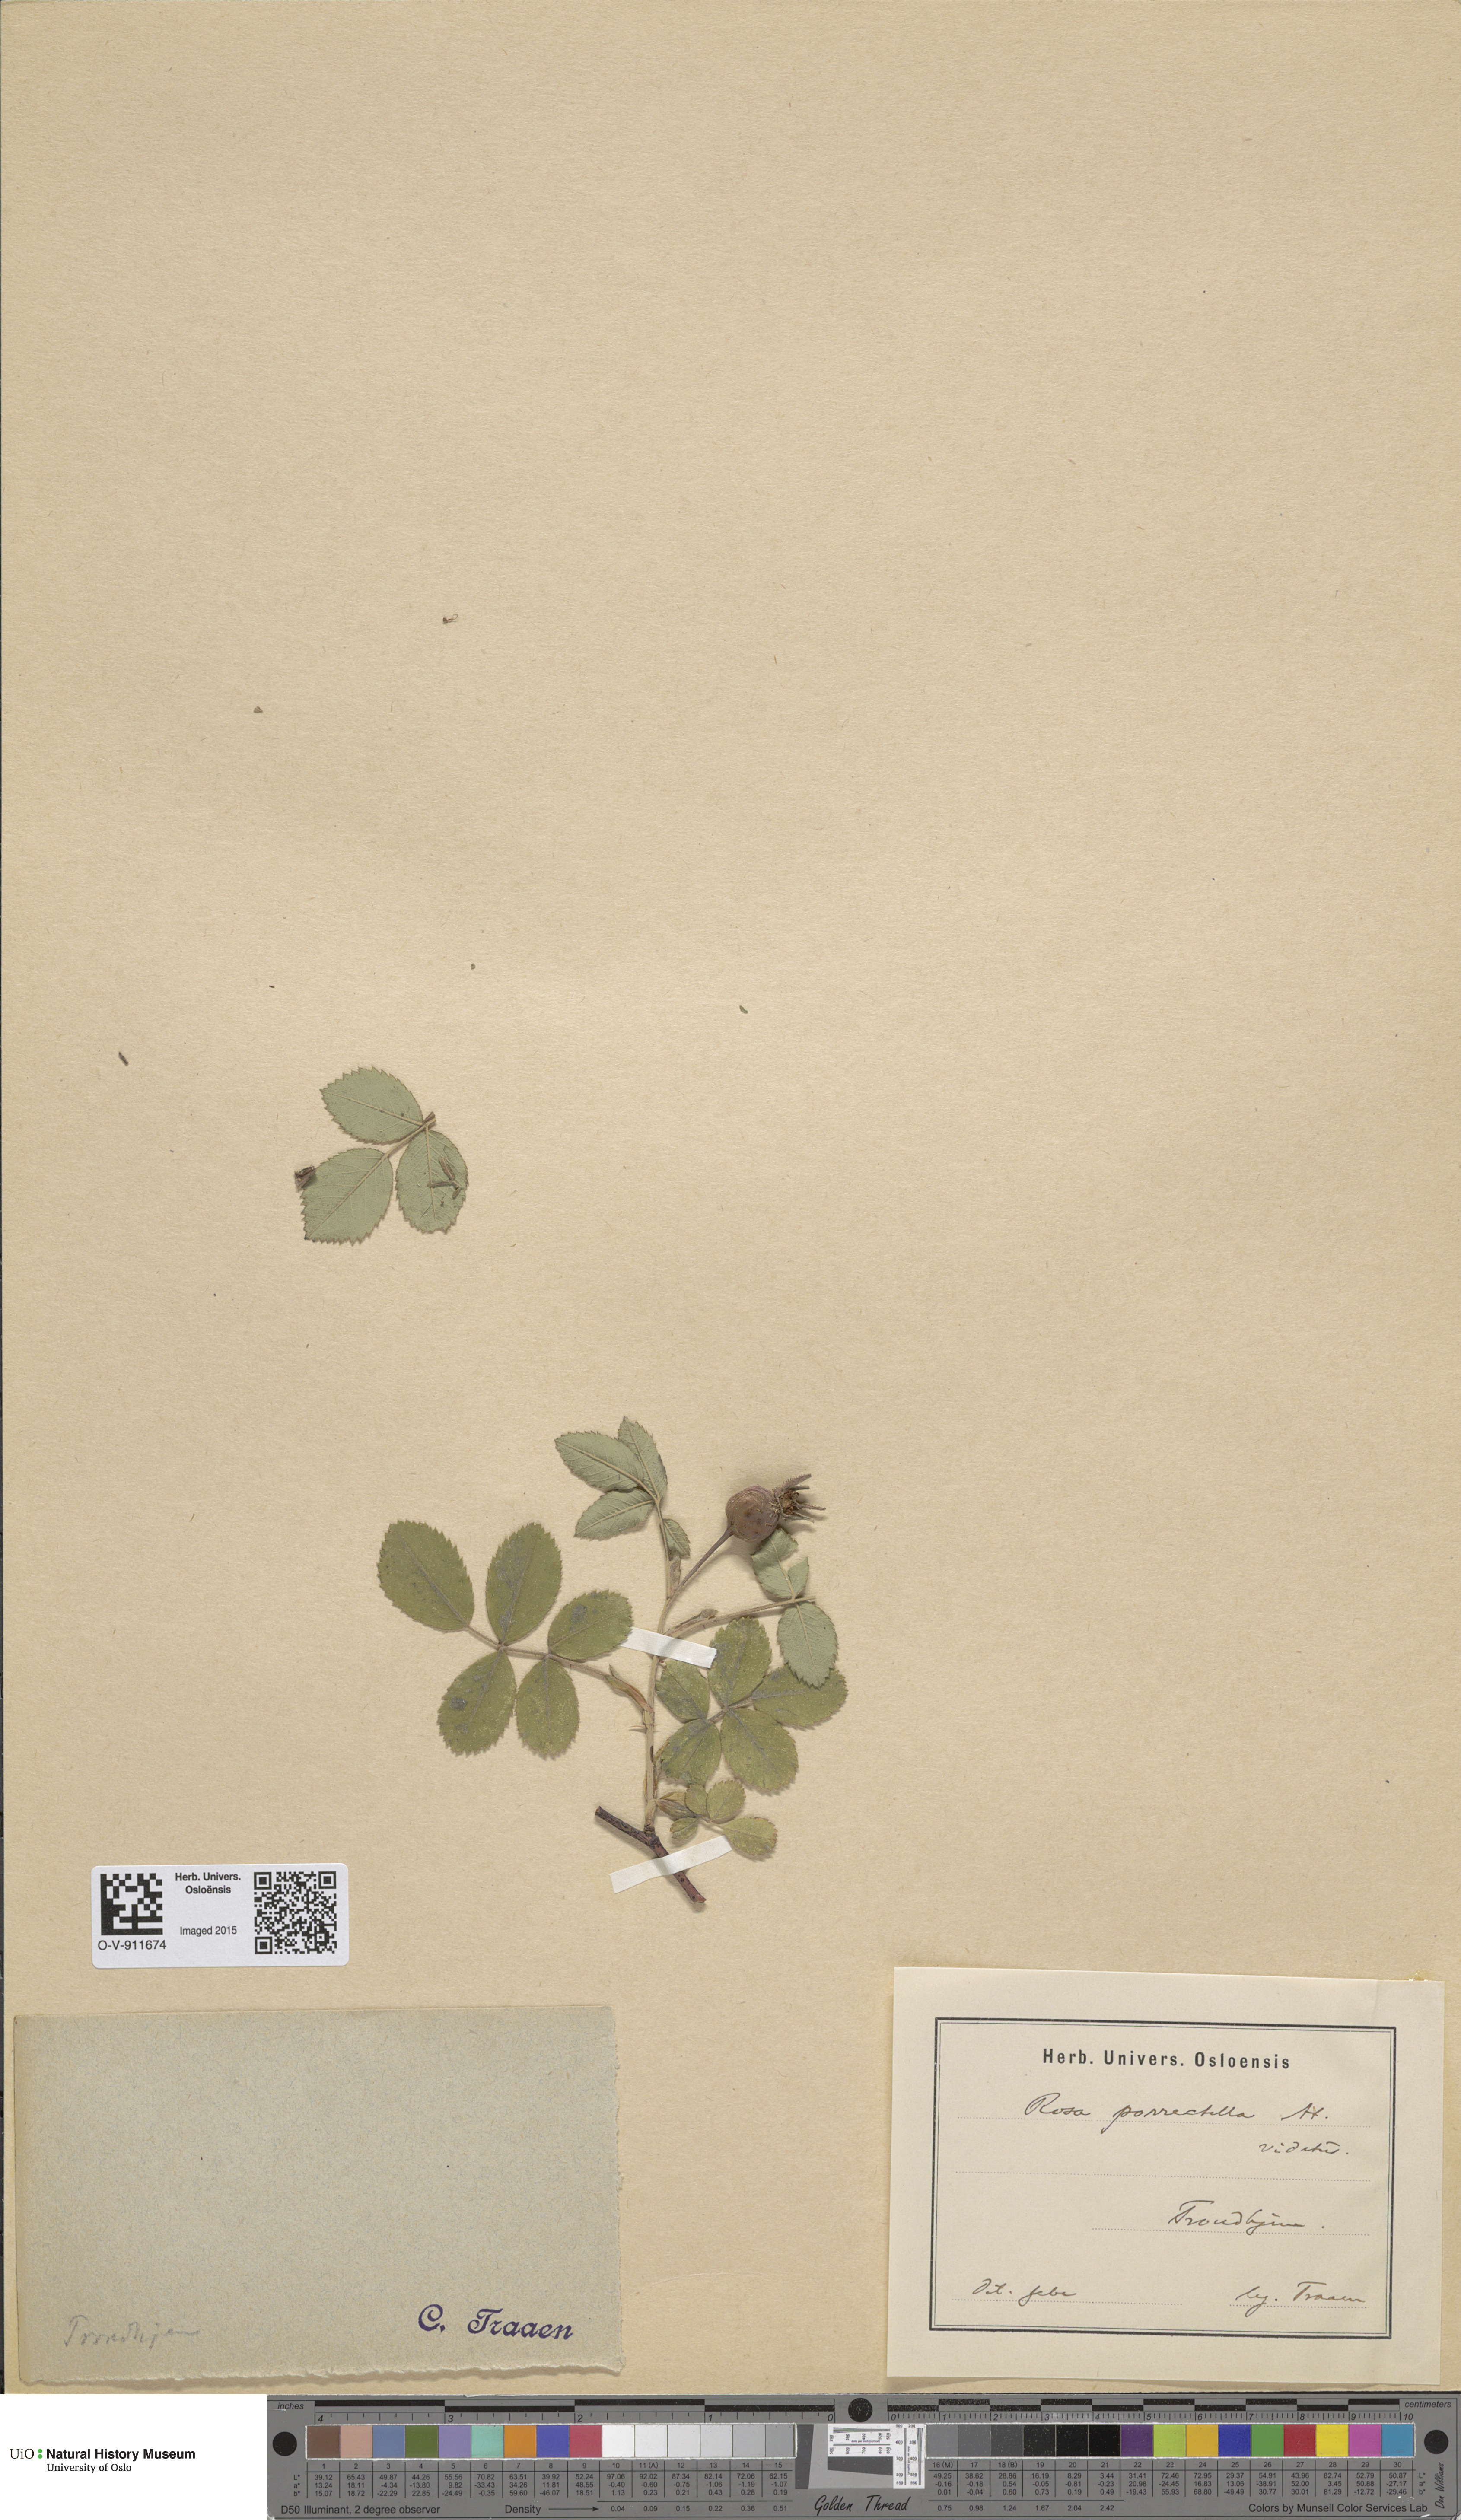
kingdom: Plantae
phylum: Tracheophyta
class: Magnoliopsida
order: Rosales
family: Rosaceae
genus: Rosa
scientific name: Rosa mollis
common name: Rose
